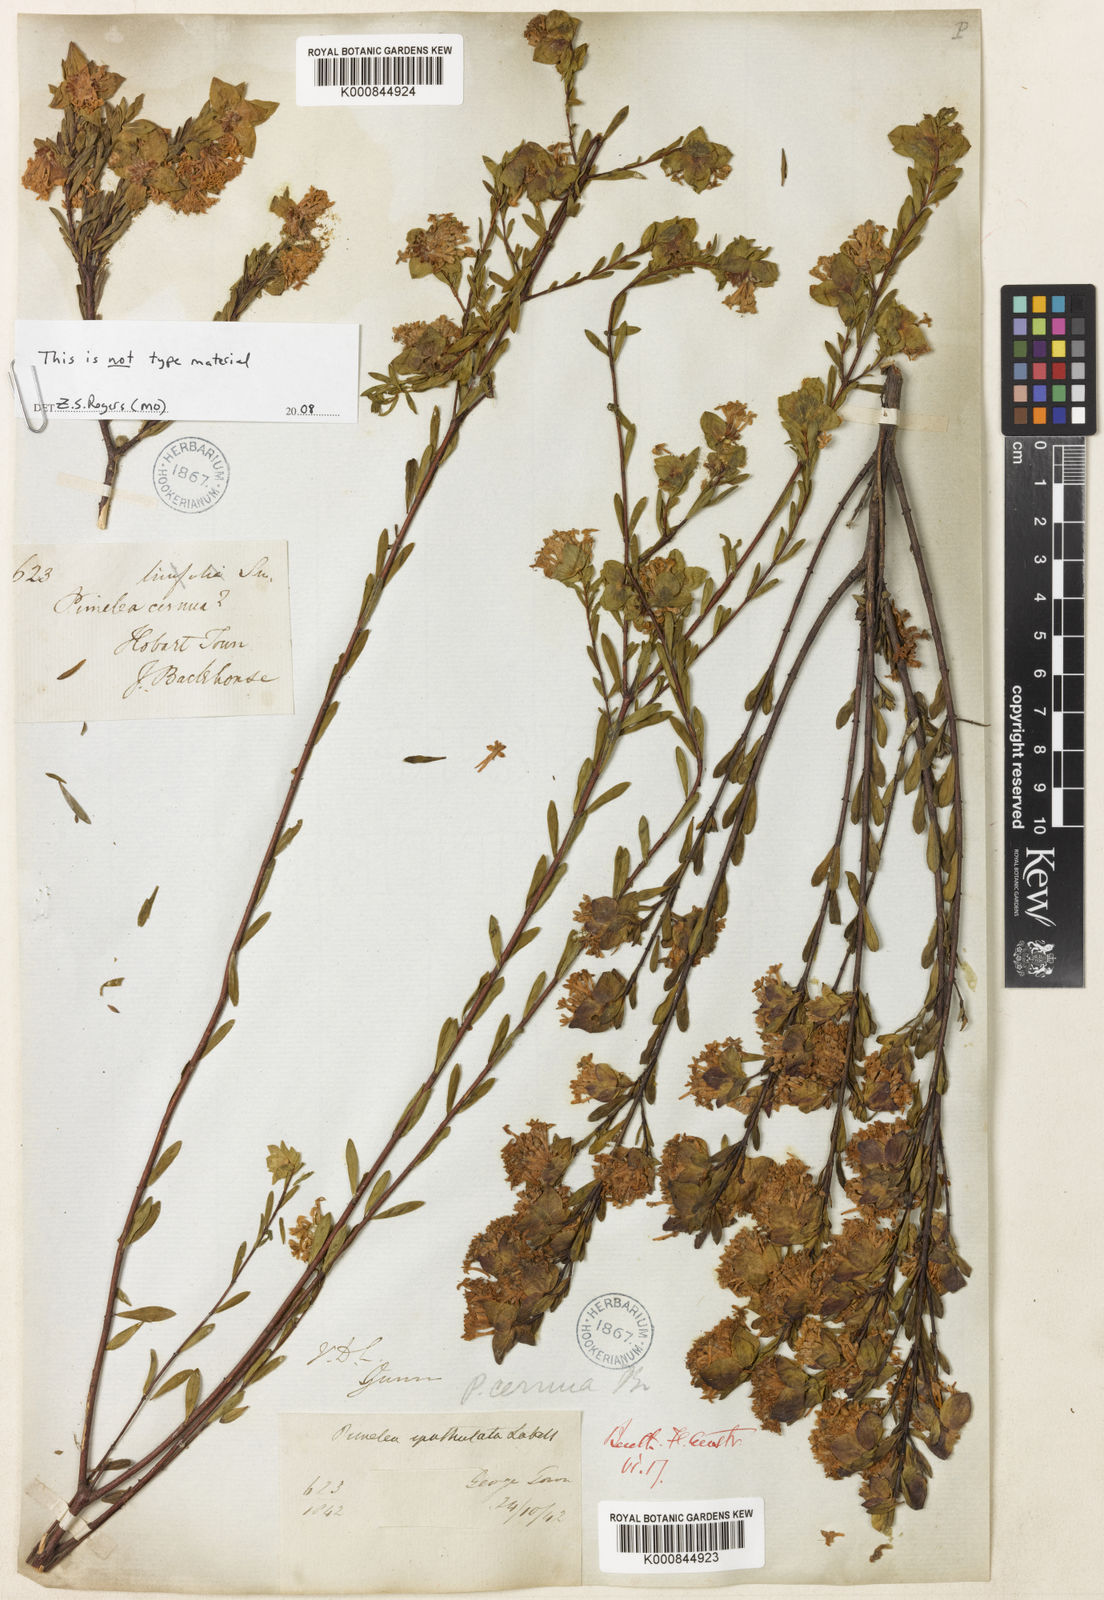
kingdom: Plantae
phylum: Tracheophyta
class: Magnoliopsida
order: Malvales
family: Thymelaeaceae
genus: Pimelea
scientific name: Pimelea linifolia
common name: Queen-of-the-bush
